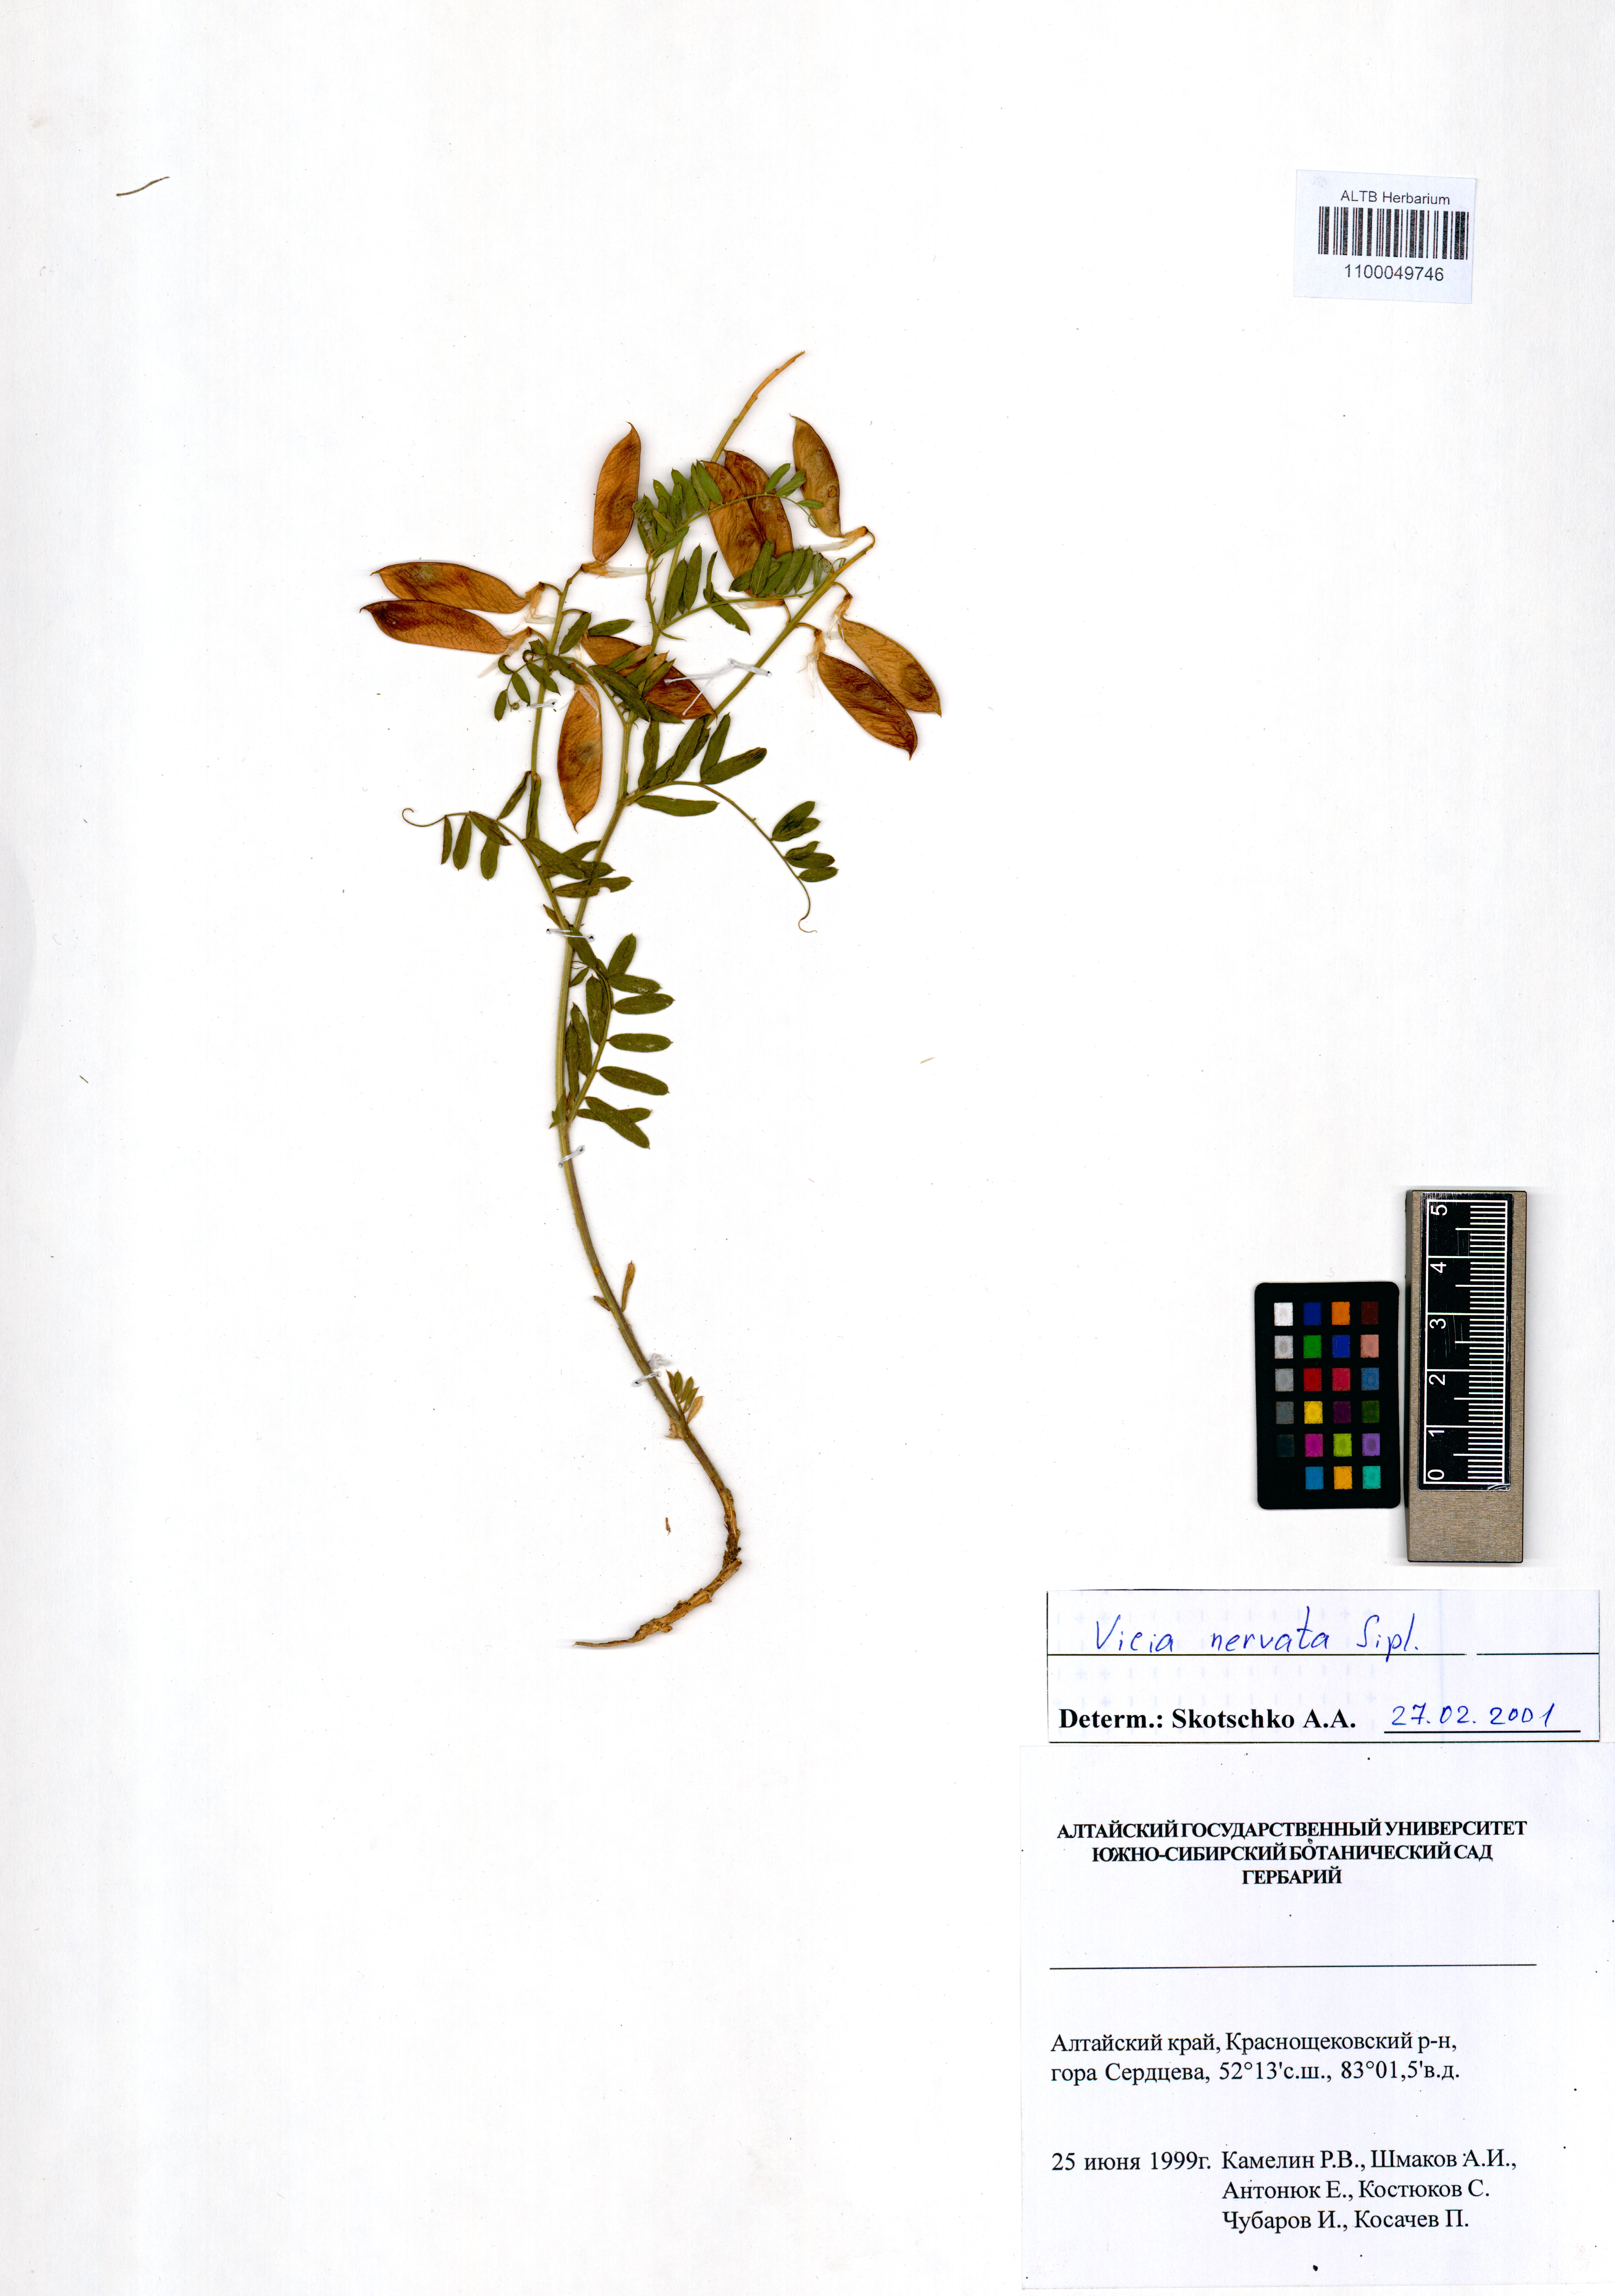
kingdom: Plantae
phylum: Tracheophyta
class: Magnoliopsida
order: Fabales
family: Fabaceae
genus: Vicia
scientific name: Vicia multicaulis
